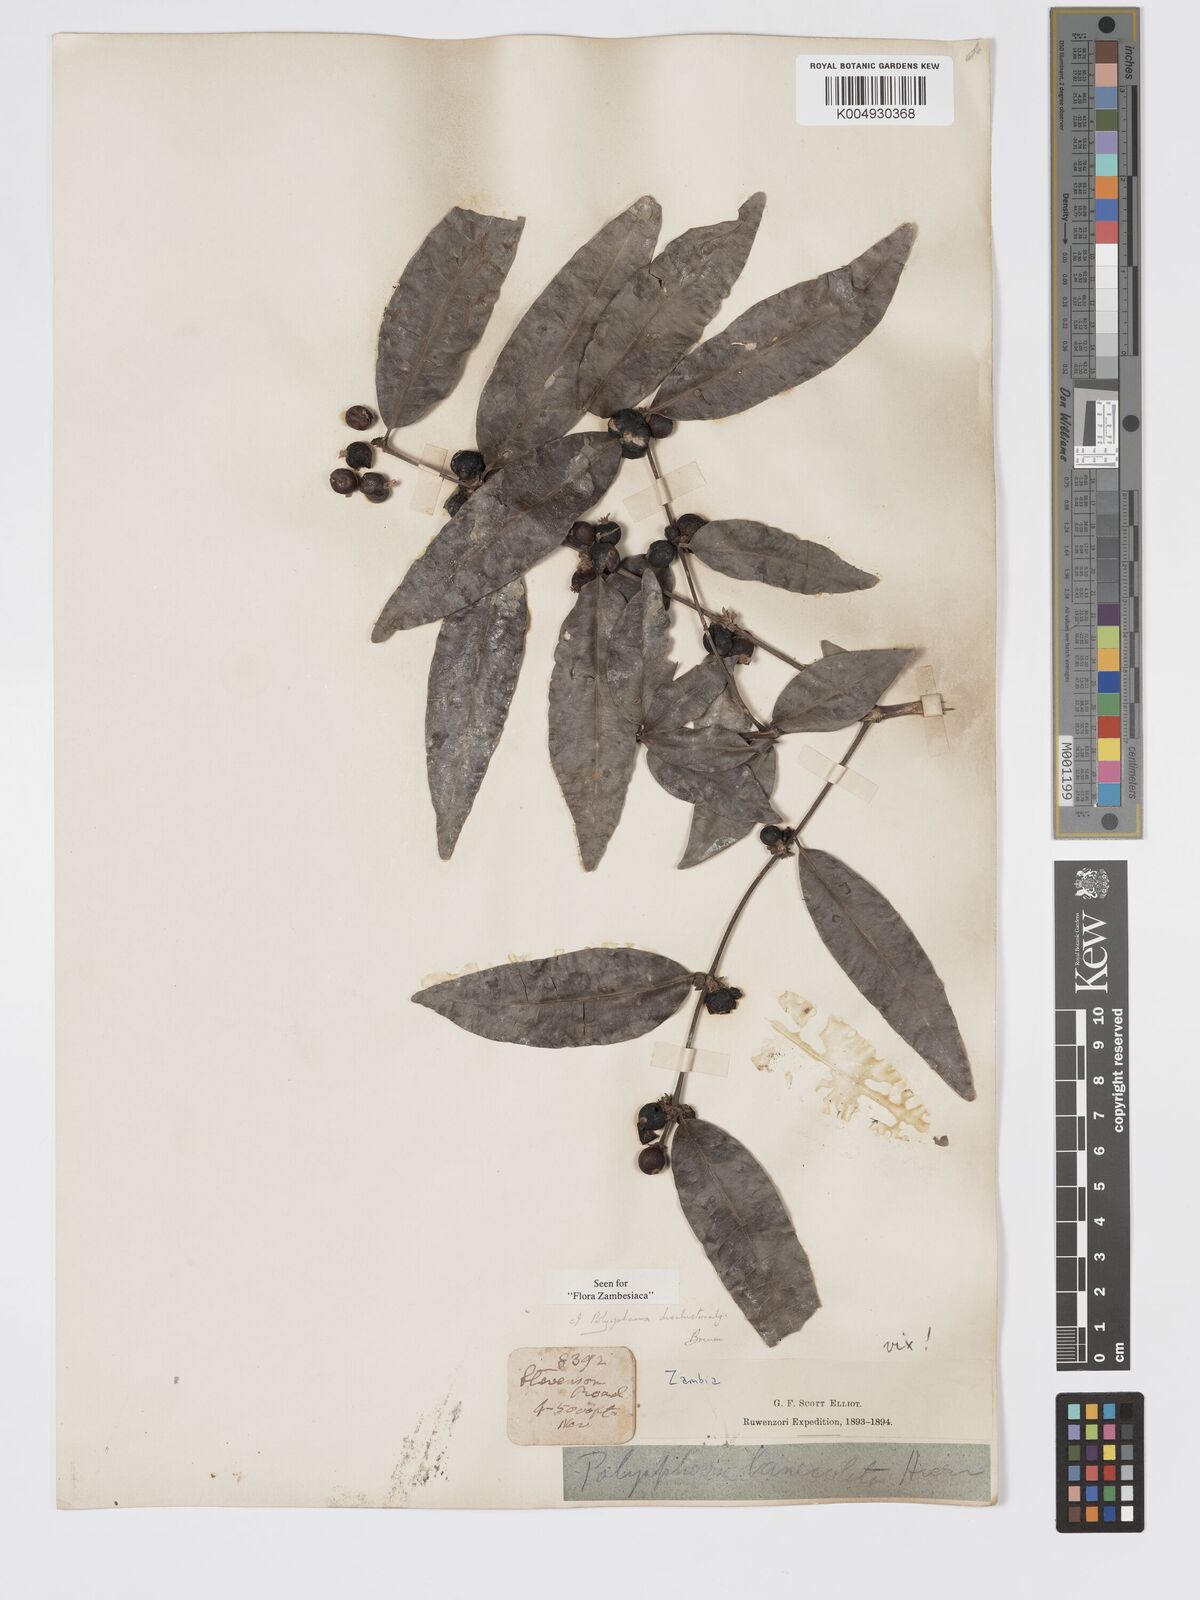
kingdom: Plantae
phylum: Tracheophyta
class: Magnoliopsida
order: Gentianales
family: Rubiaceae
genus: Polysphaeria
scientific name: Polysphaeria dischistocalyx
